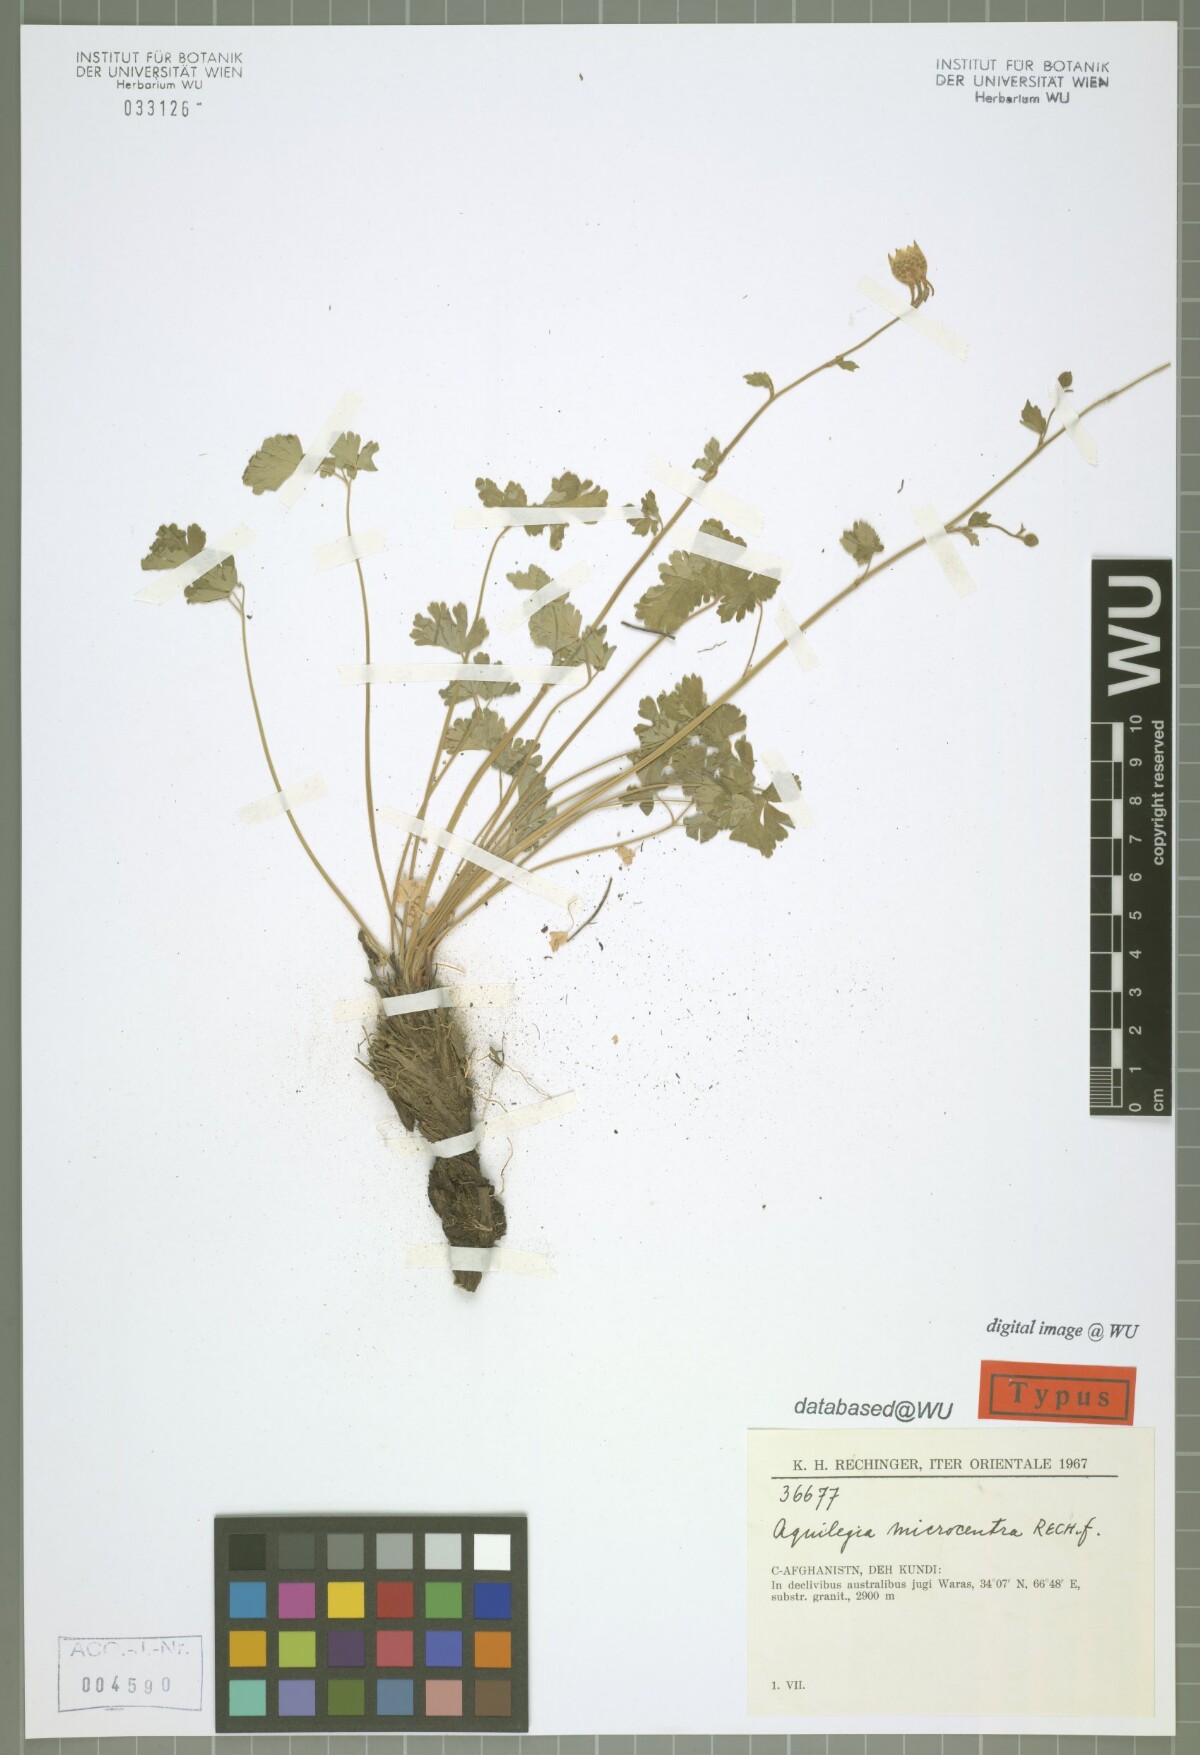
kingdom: Plantae
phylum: Tracheophyta
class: Magnoliopsida
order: Ranunculales
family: Ranunculaceae
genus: Aquilegia
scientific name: Aquilegia microcentra
